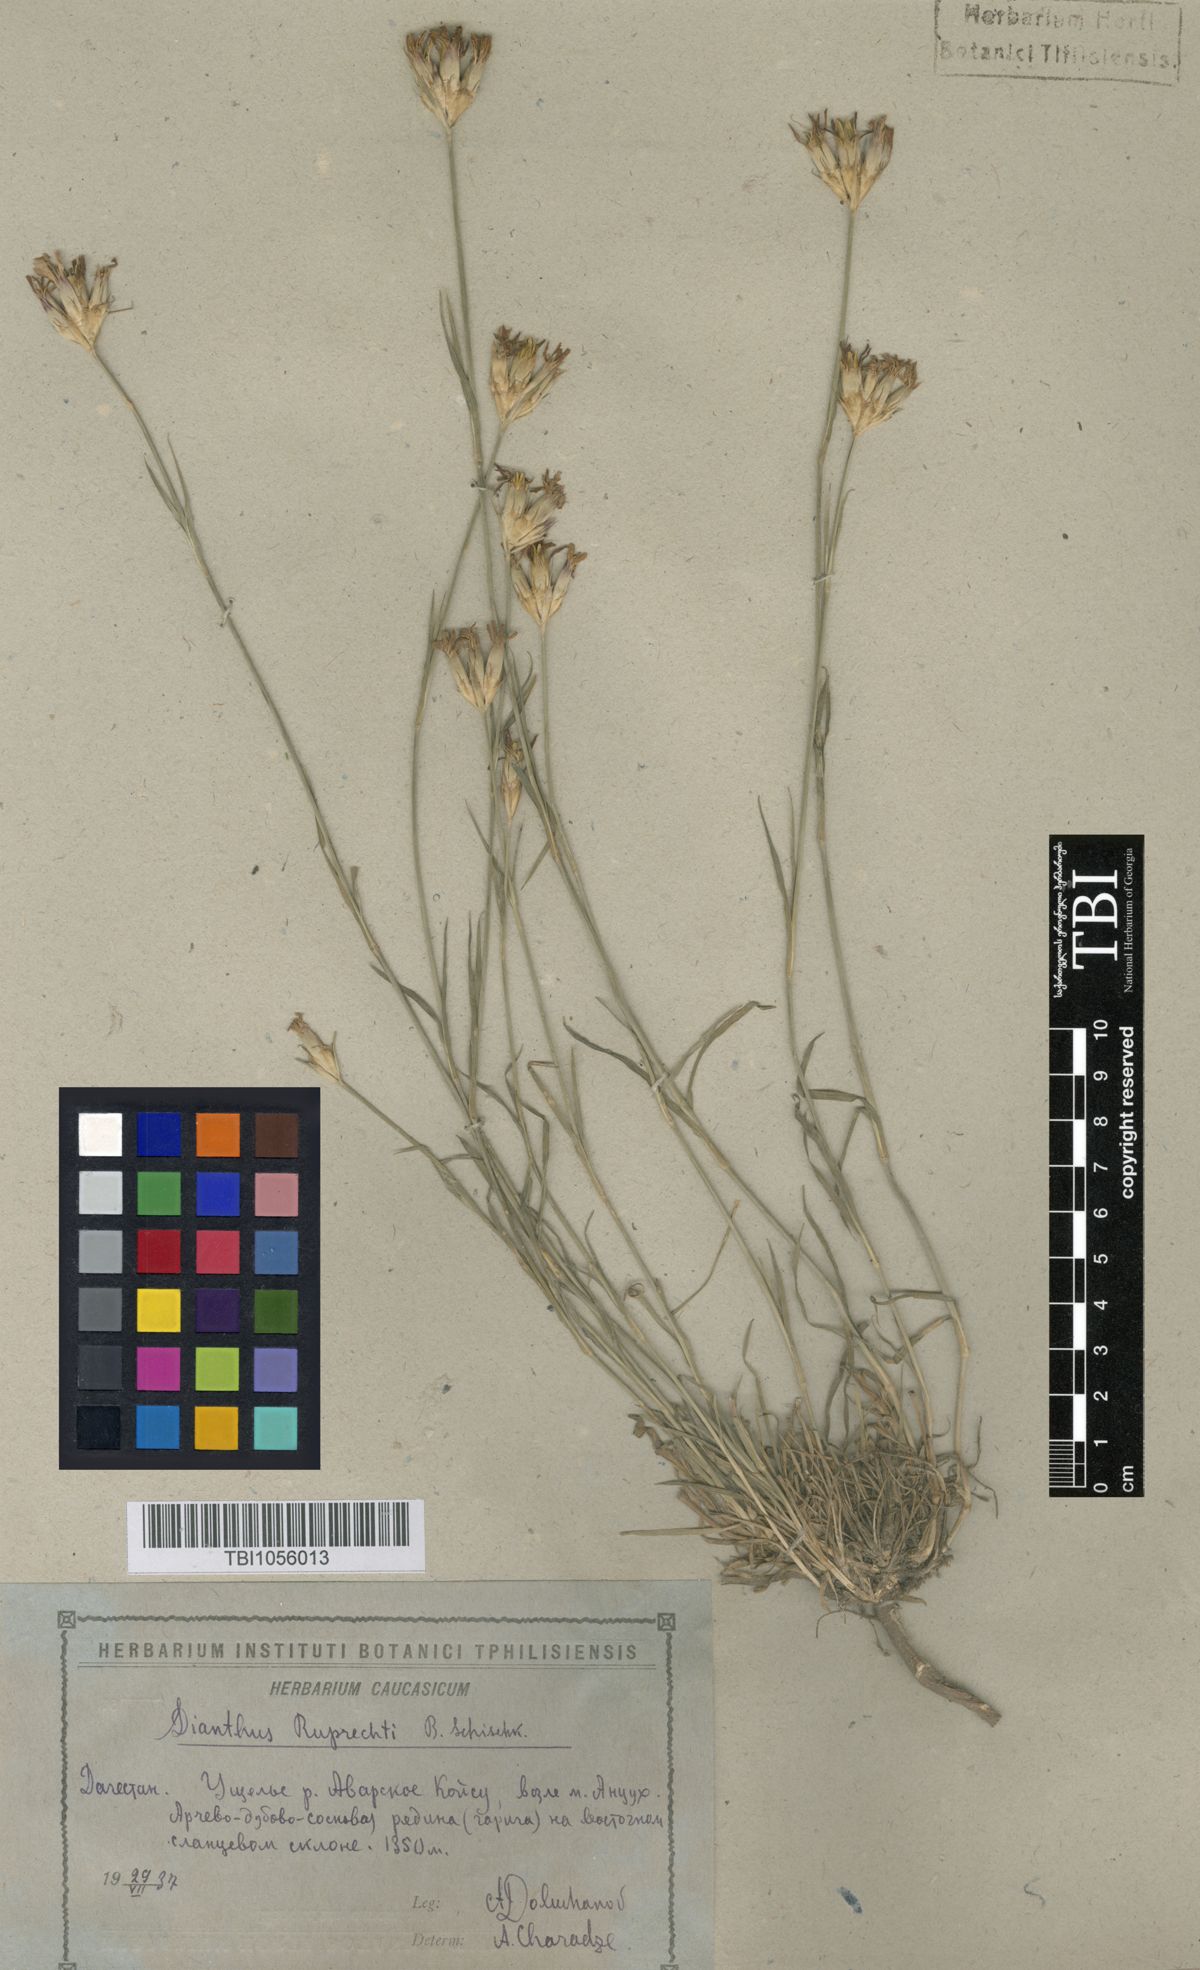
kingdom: Plantae
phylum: Tracheophyta
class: Magnoliopsida
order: Caryophyllales
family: Caryophyllaceae
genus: Dianthus
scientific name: Dianthus ruprechtii
